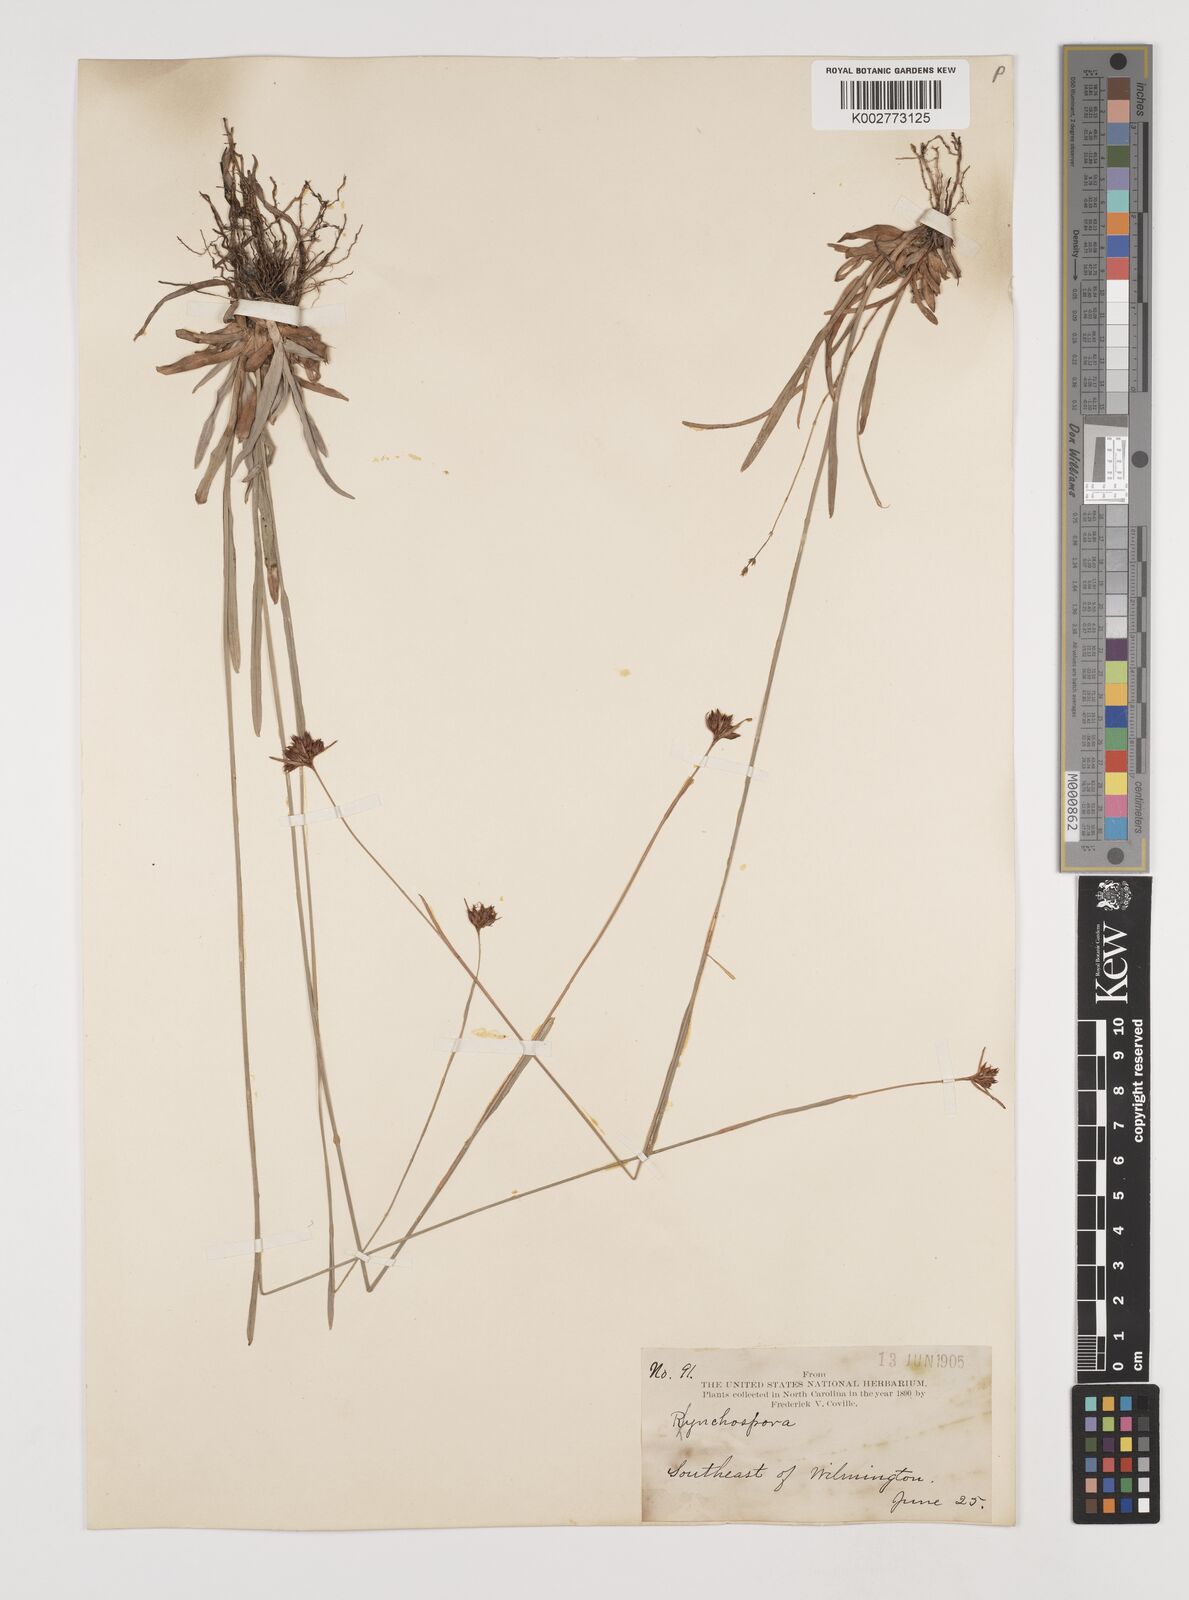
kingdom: Plantae
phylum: Tracheophyta
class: Liliopsida
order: Poales
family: Cyperaceae
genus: Rhynchospora
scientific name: Rhynchospora
